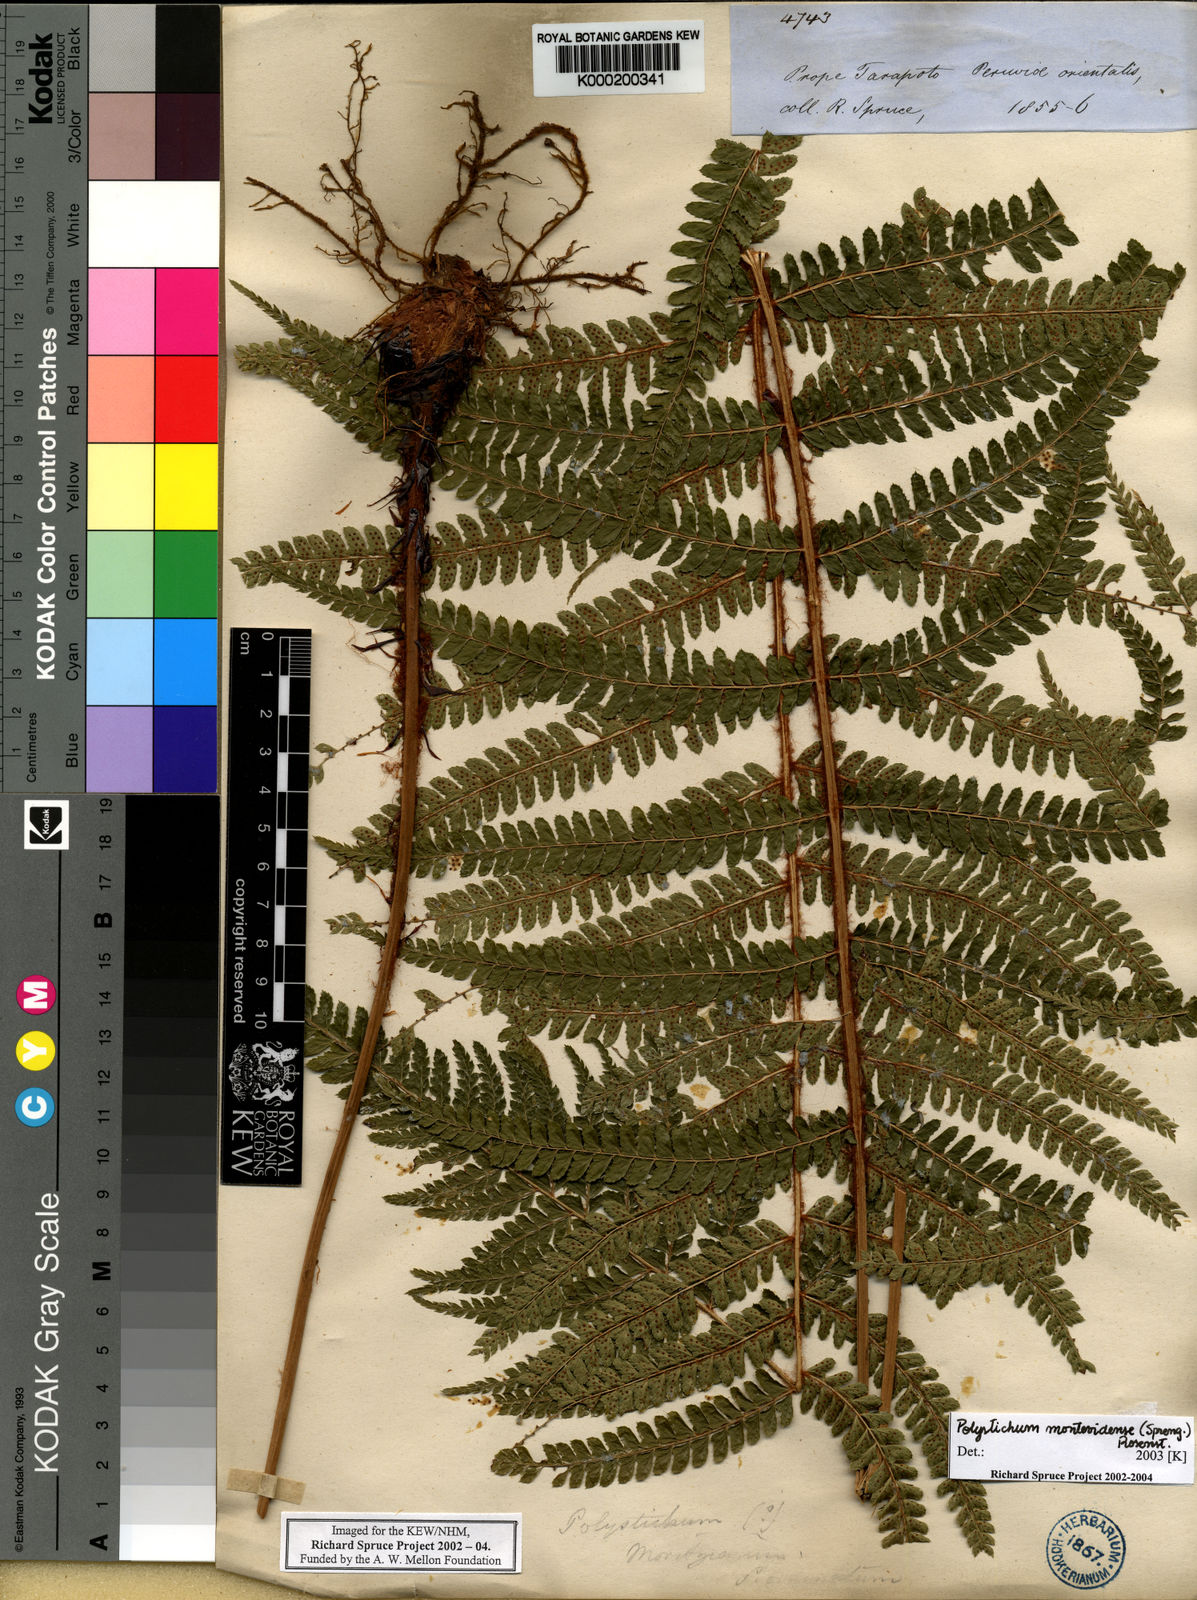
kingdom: Plantae
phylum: Tracheophyta
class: Polypodiopsida
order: Polypodiales
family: Dryopteridaceae
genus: Polystichum
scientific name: Polystichum montevidense
